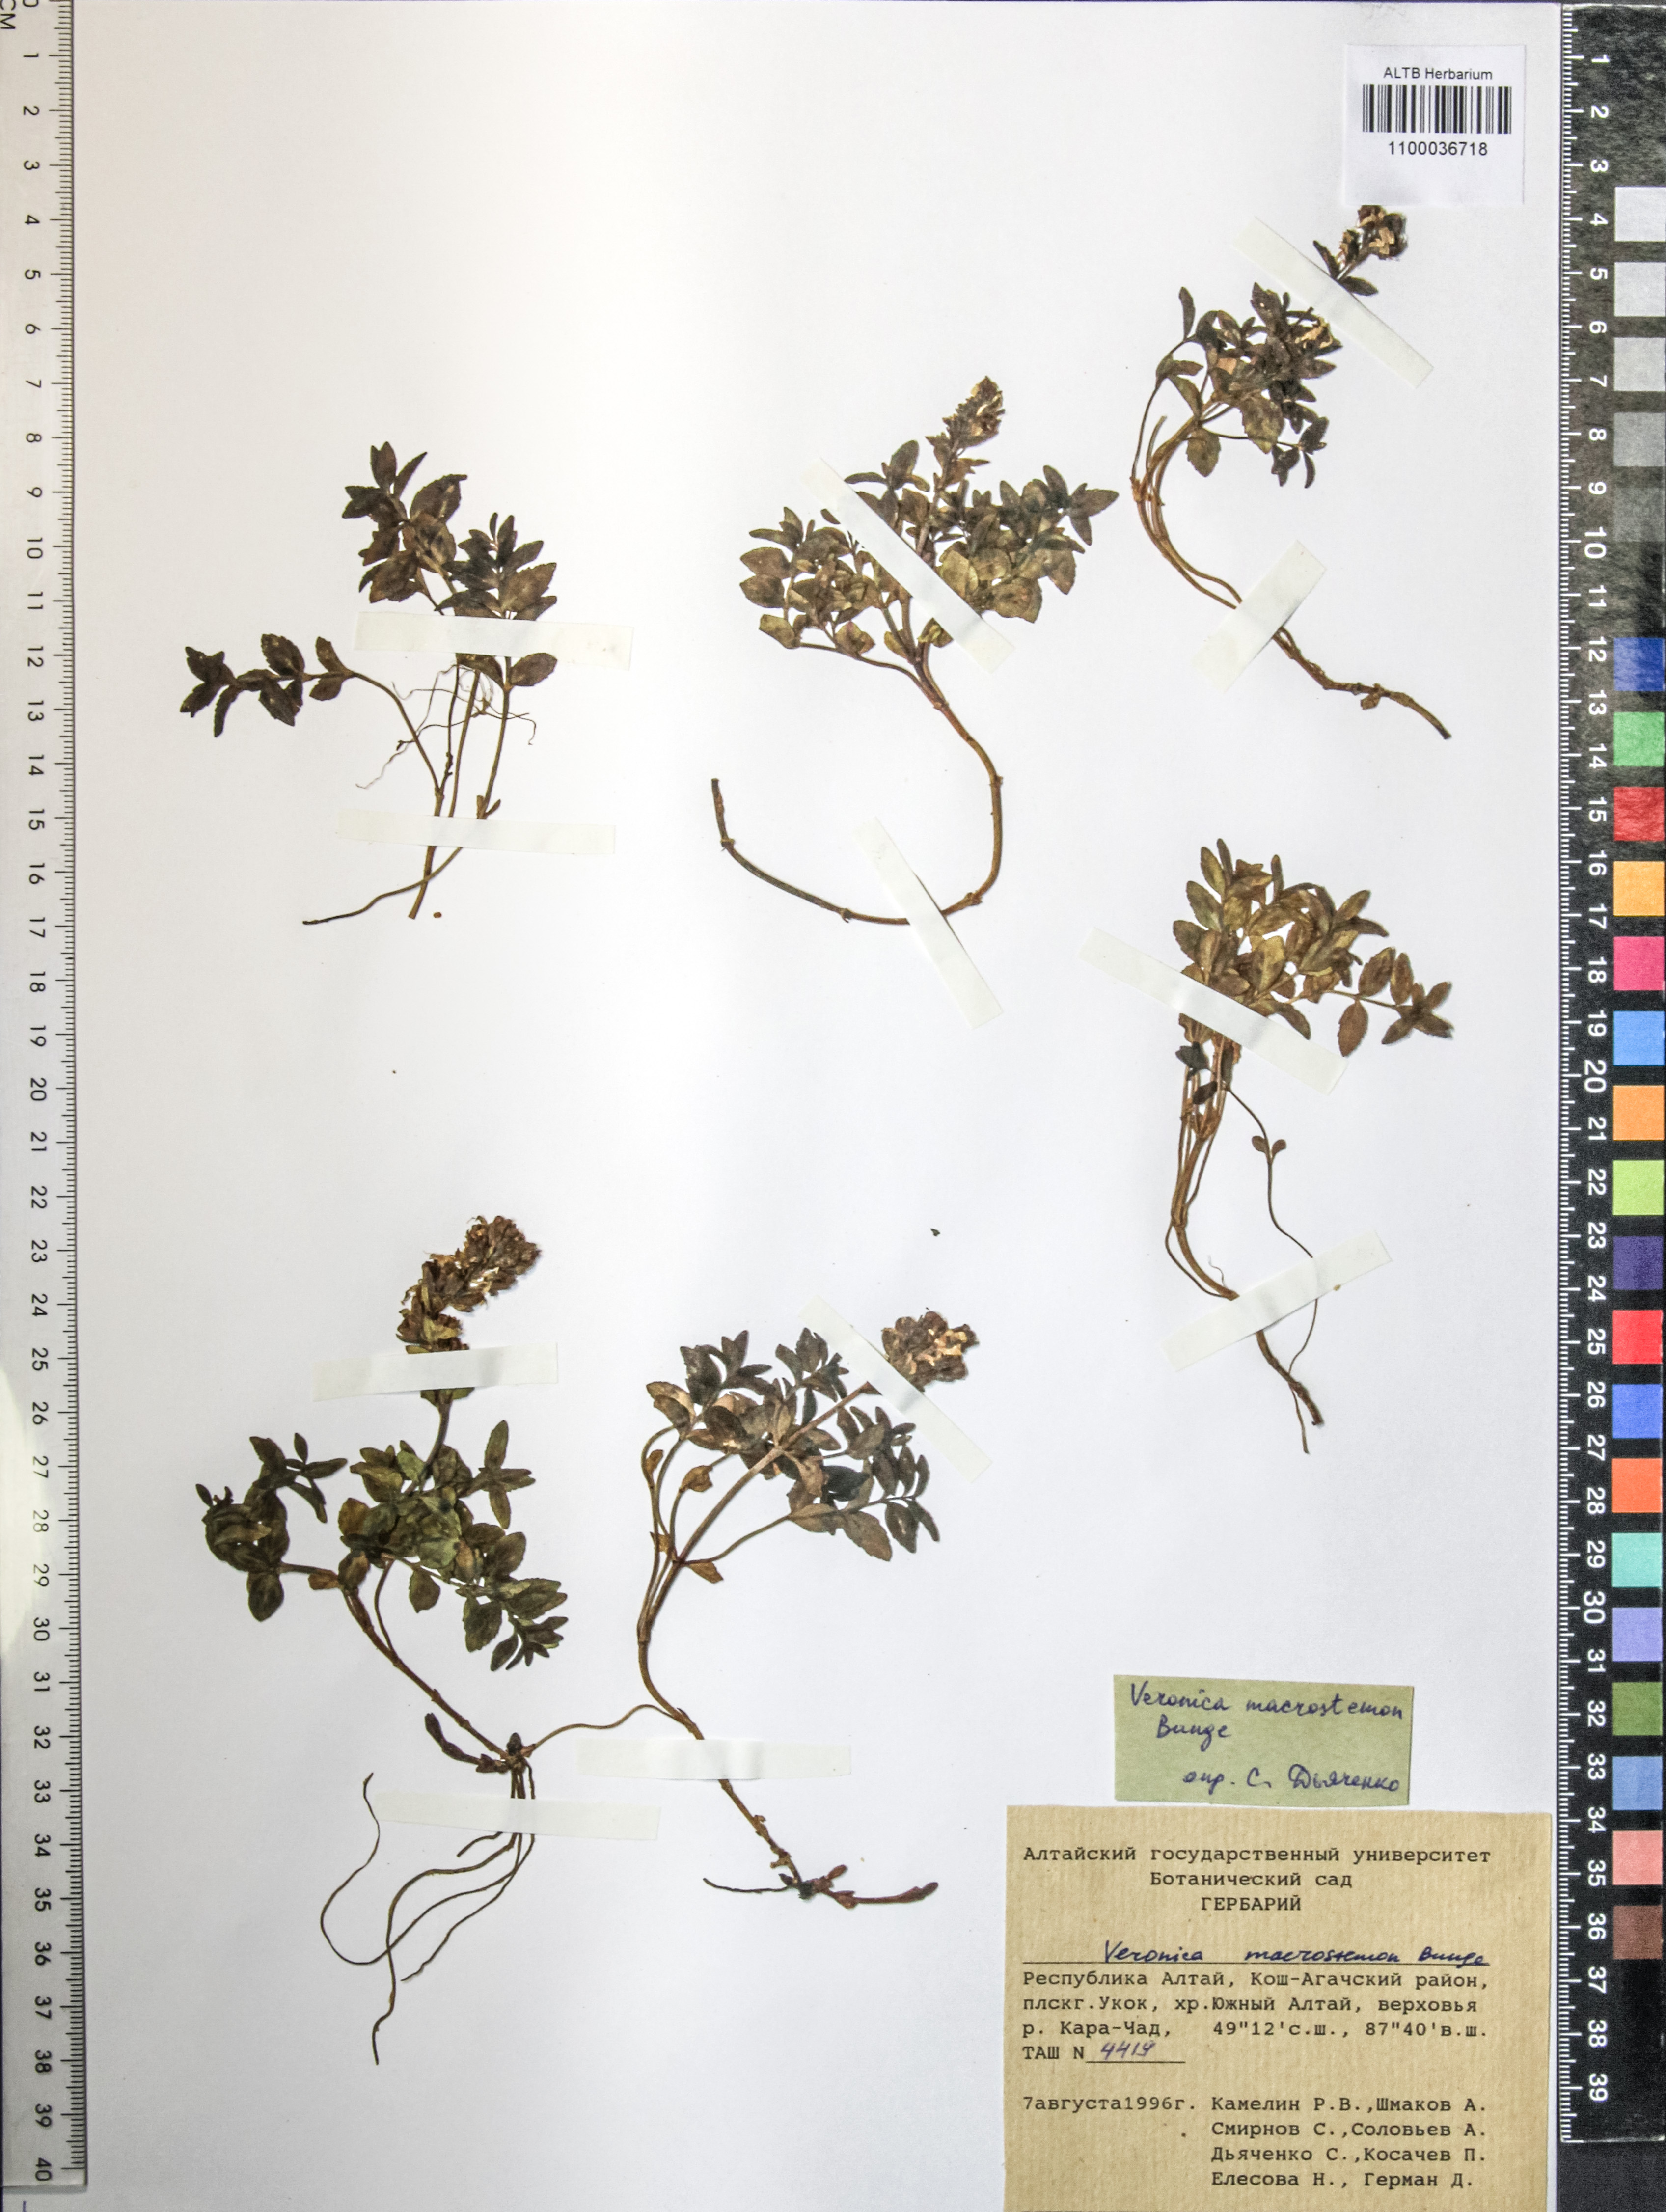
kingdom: Plantae
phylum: Tracheophyta
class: Magnoliopsida
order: Lamiales
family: Plantaginaceae
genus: Veronica
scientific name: Veronica macrostemon
